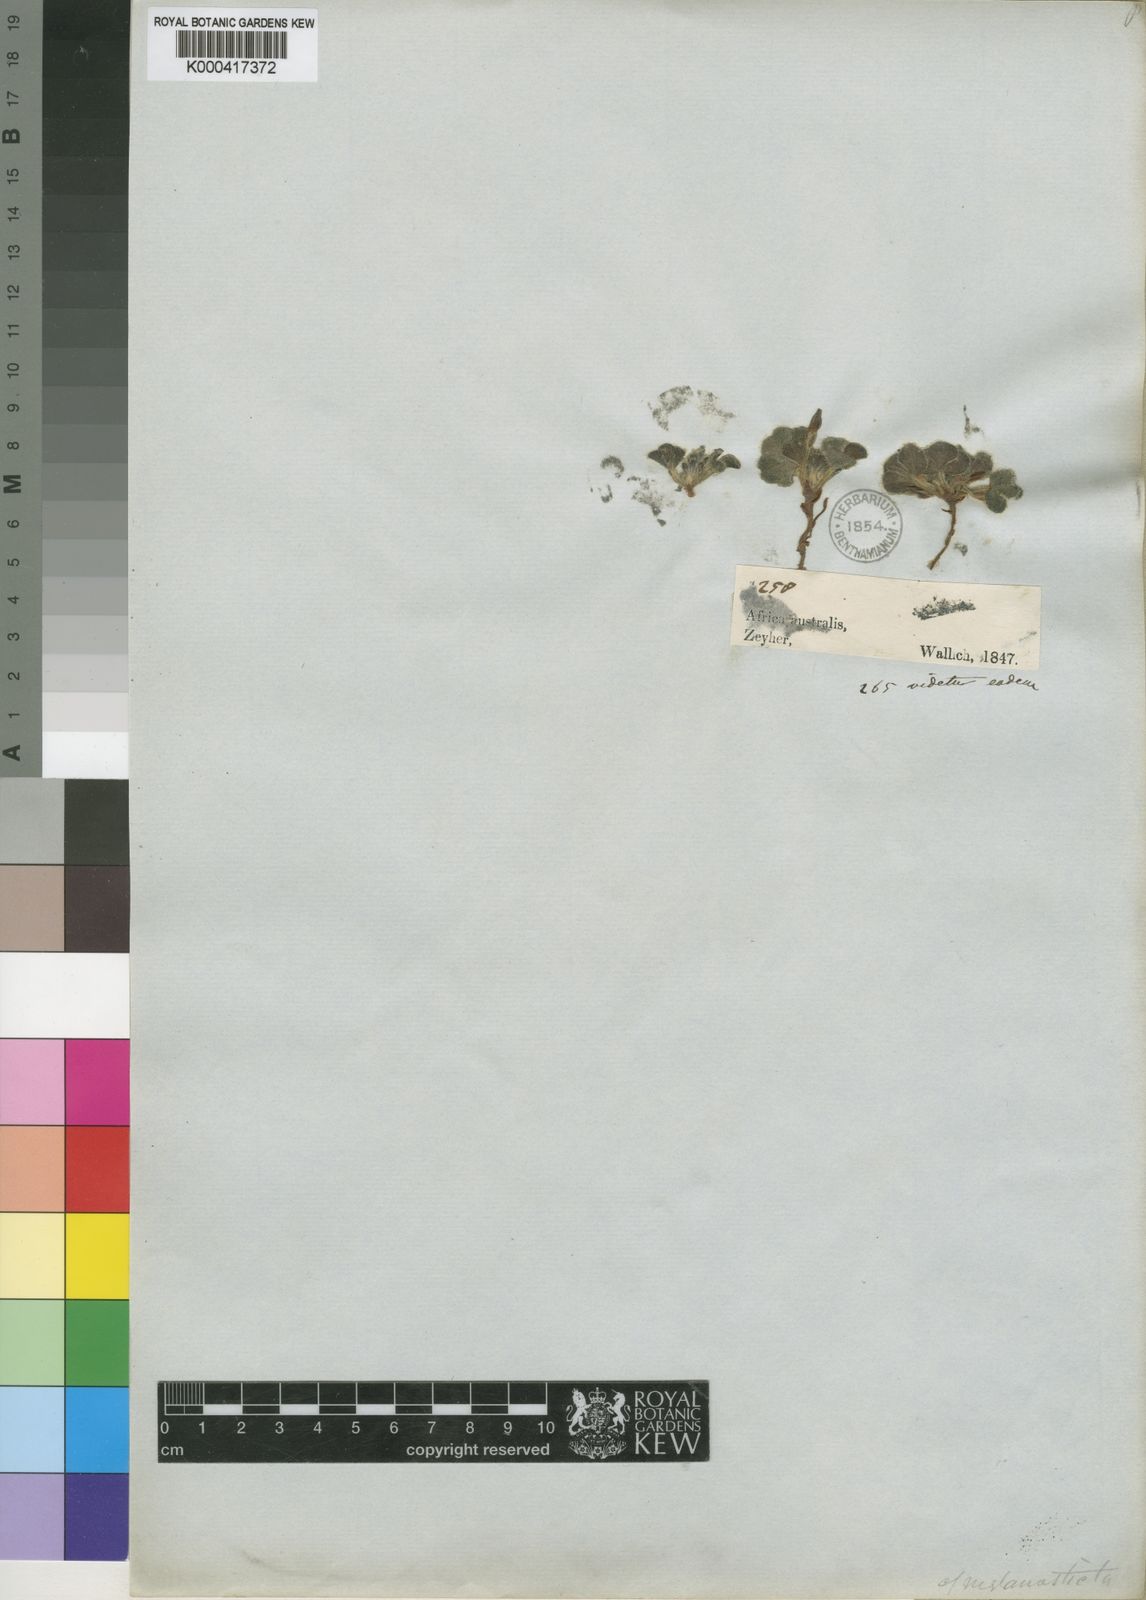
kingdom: Plantae
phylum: Tracheophyta
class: Magnoliopsida
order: Oxalidales
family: Oxalidaceae
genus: Oxalis
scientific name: Oxalis melanosticta
